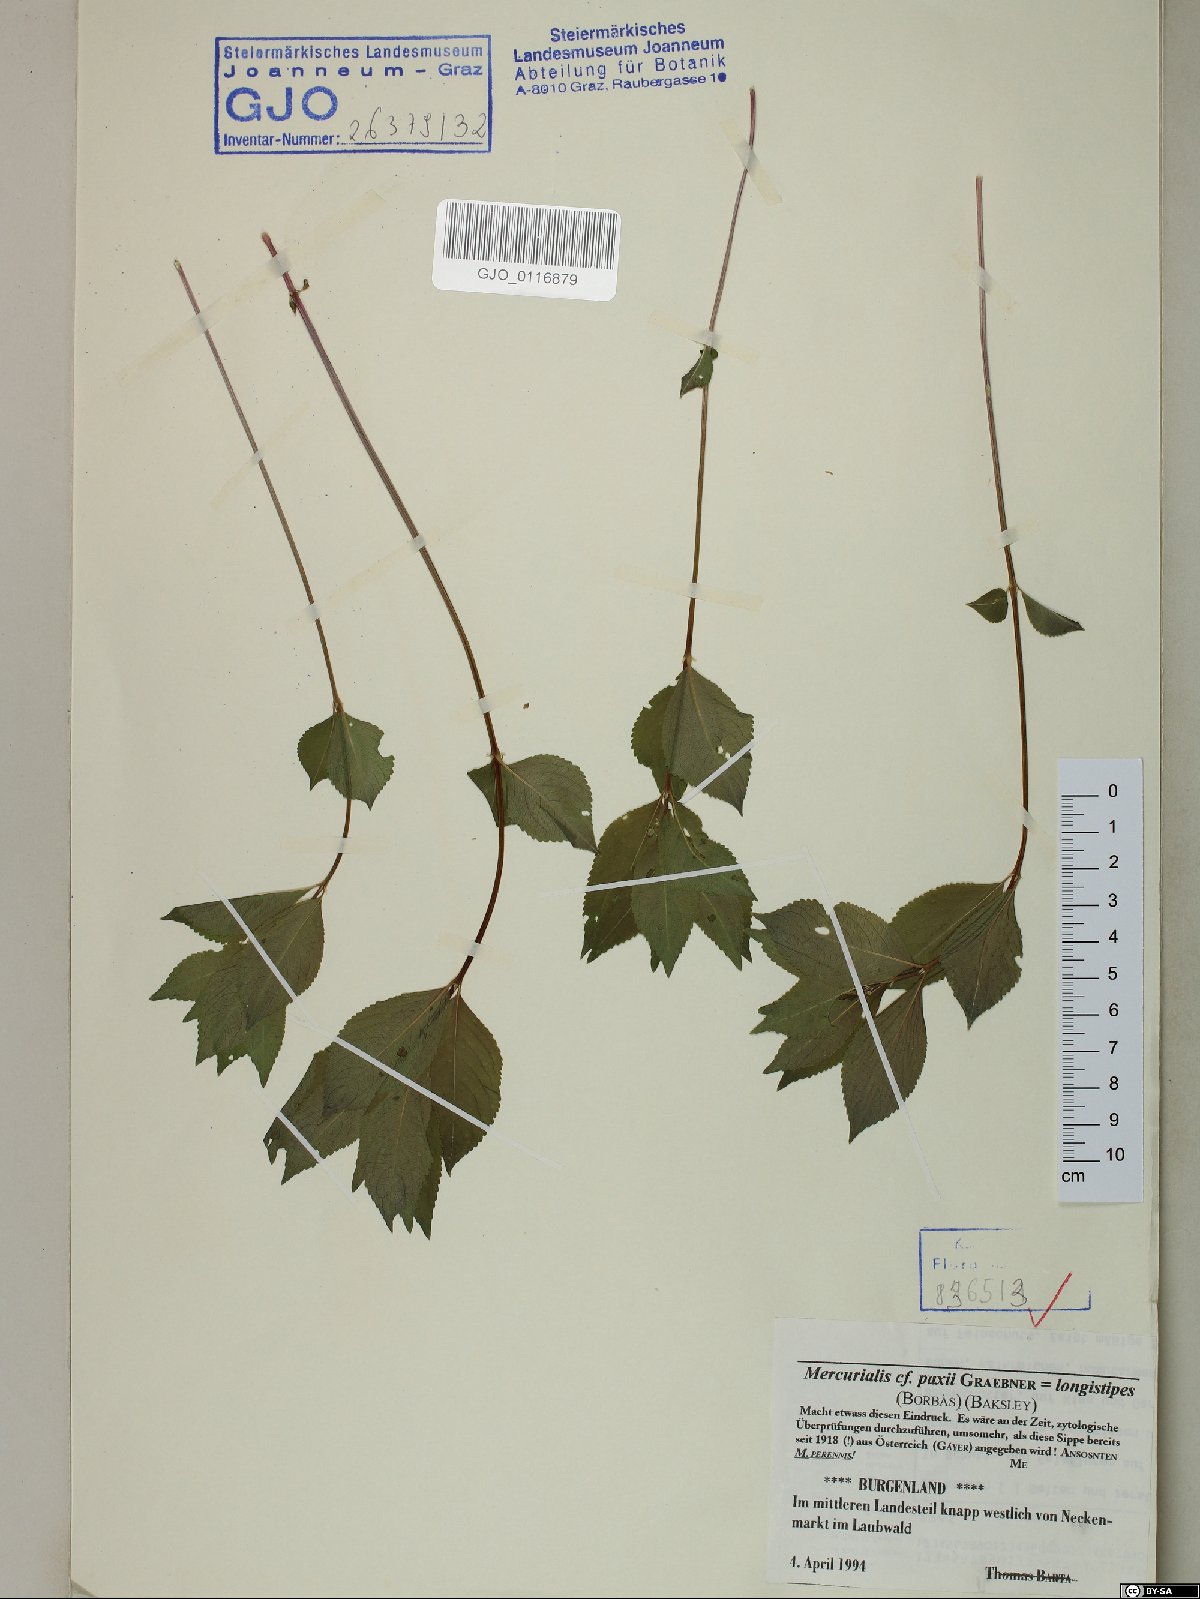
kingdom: Plantae
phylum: Tracheophyta
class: Magnoliopsida
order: Malpighiales
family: Euphorbiaceae
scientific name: Euphorbiaceae
